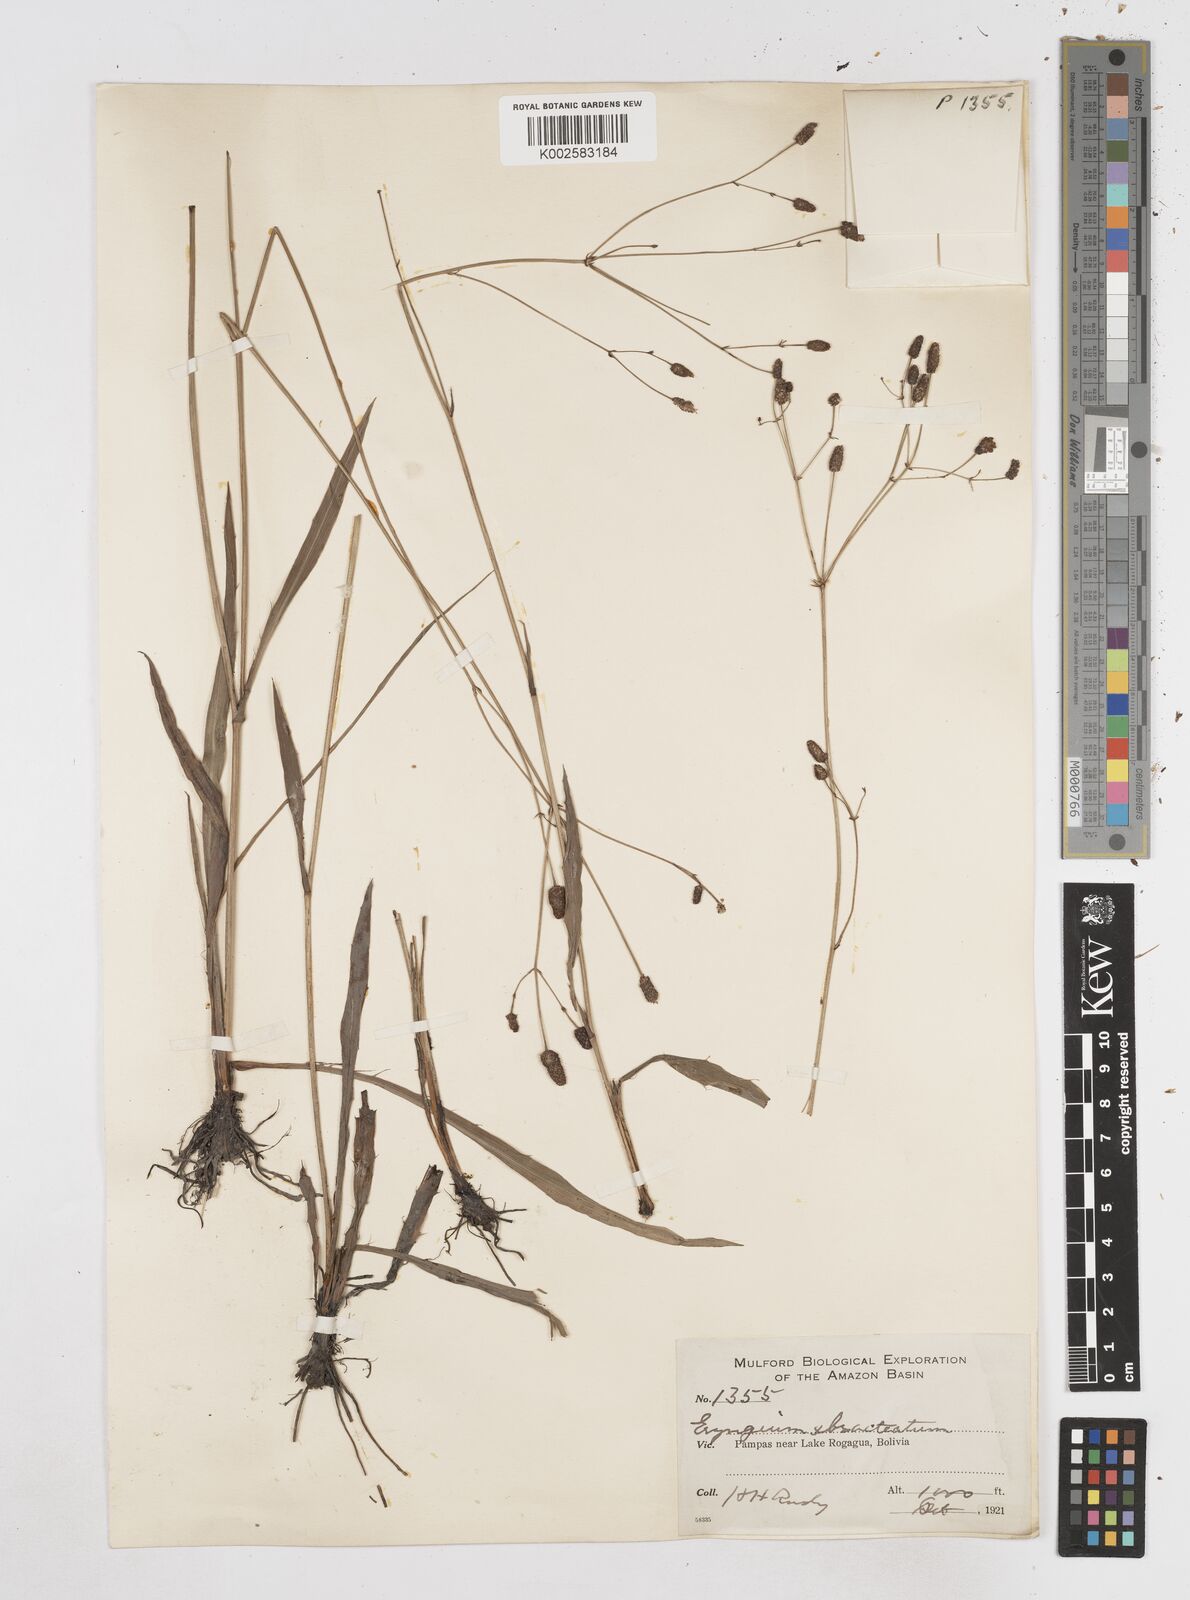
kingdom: Plantae
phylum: Tracheophyta
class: Magnoliopsida
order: Apiales
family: Apiaceae
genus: Eryngium
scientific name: Eryngium ebracteatum
